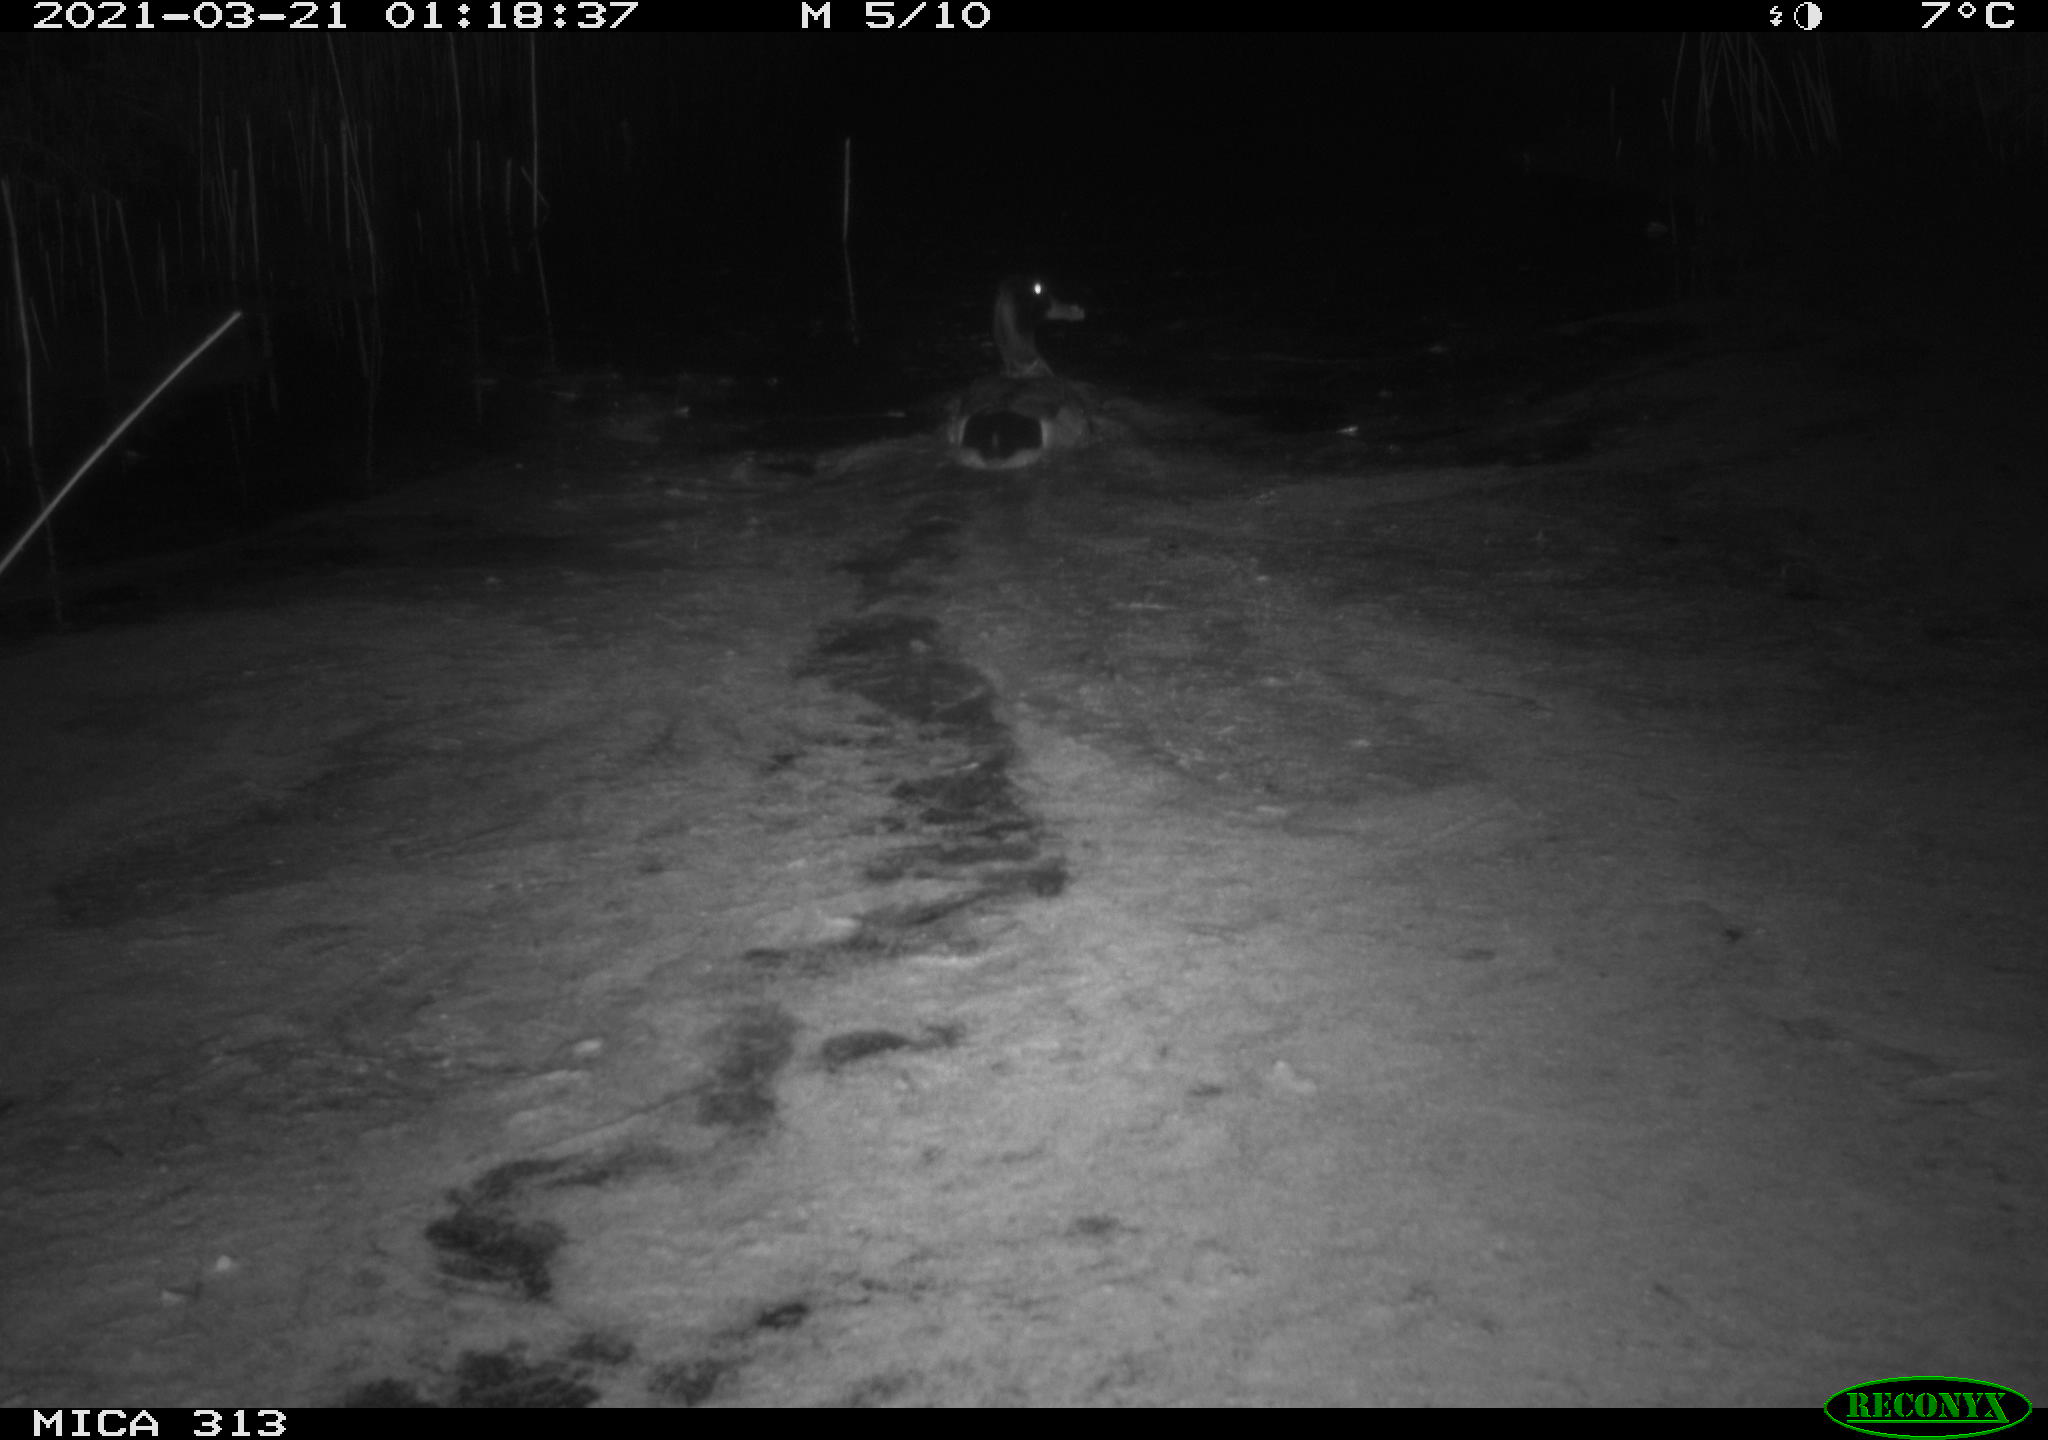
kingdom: Animalia
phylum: Chordata
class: Aves
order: Anseriformes
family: Anatidae
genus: Anas
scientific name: Anas platyrhynchos
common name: Mallard
